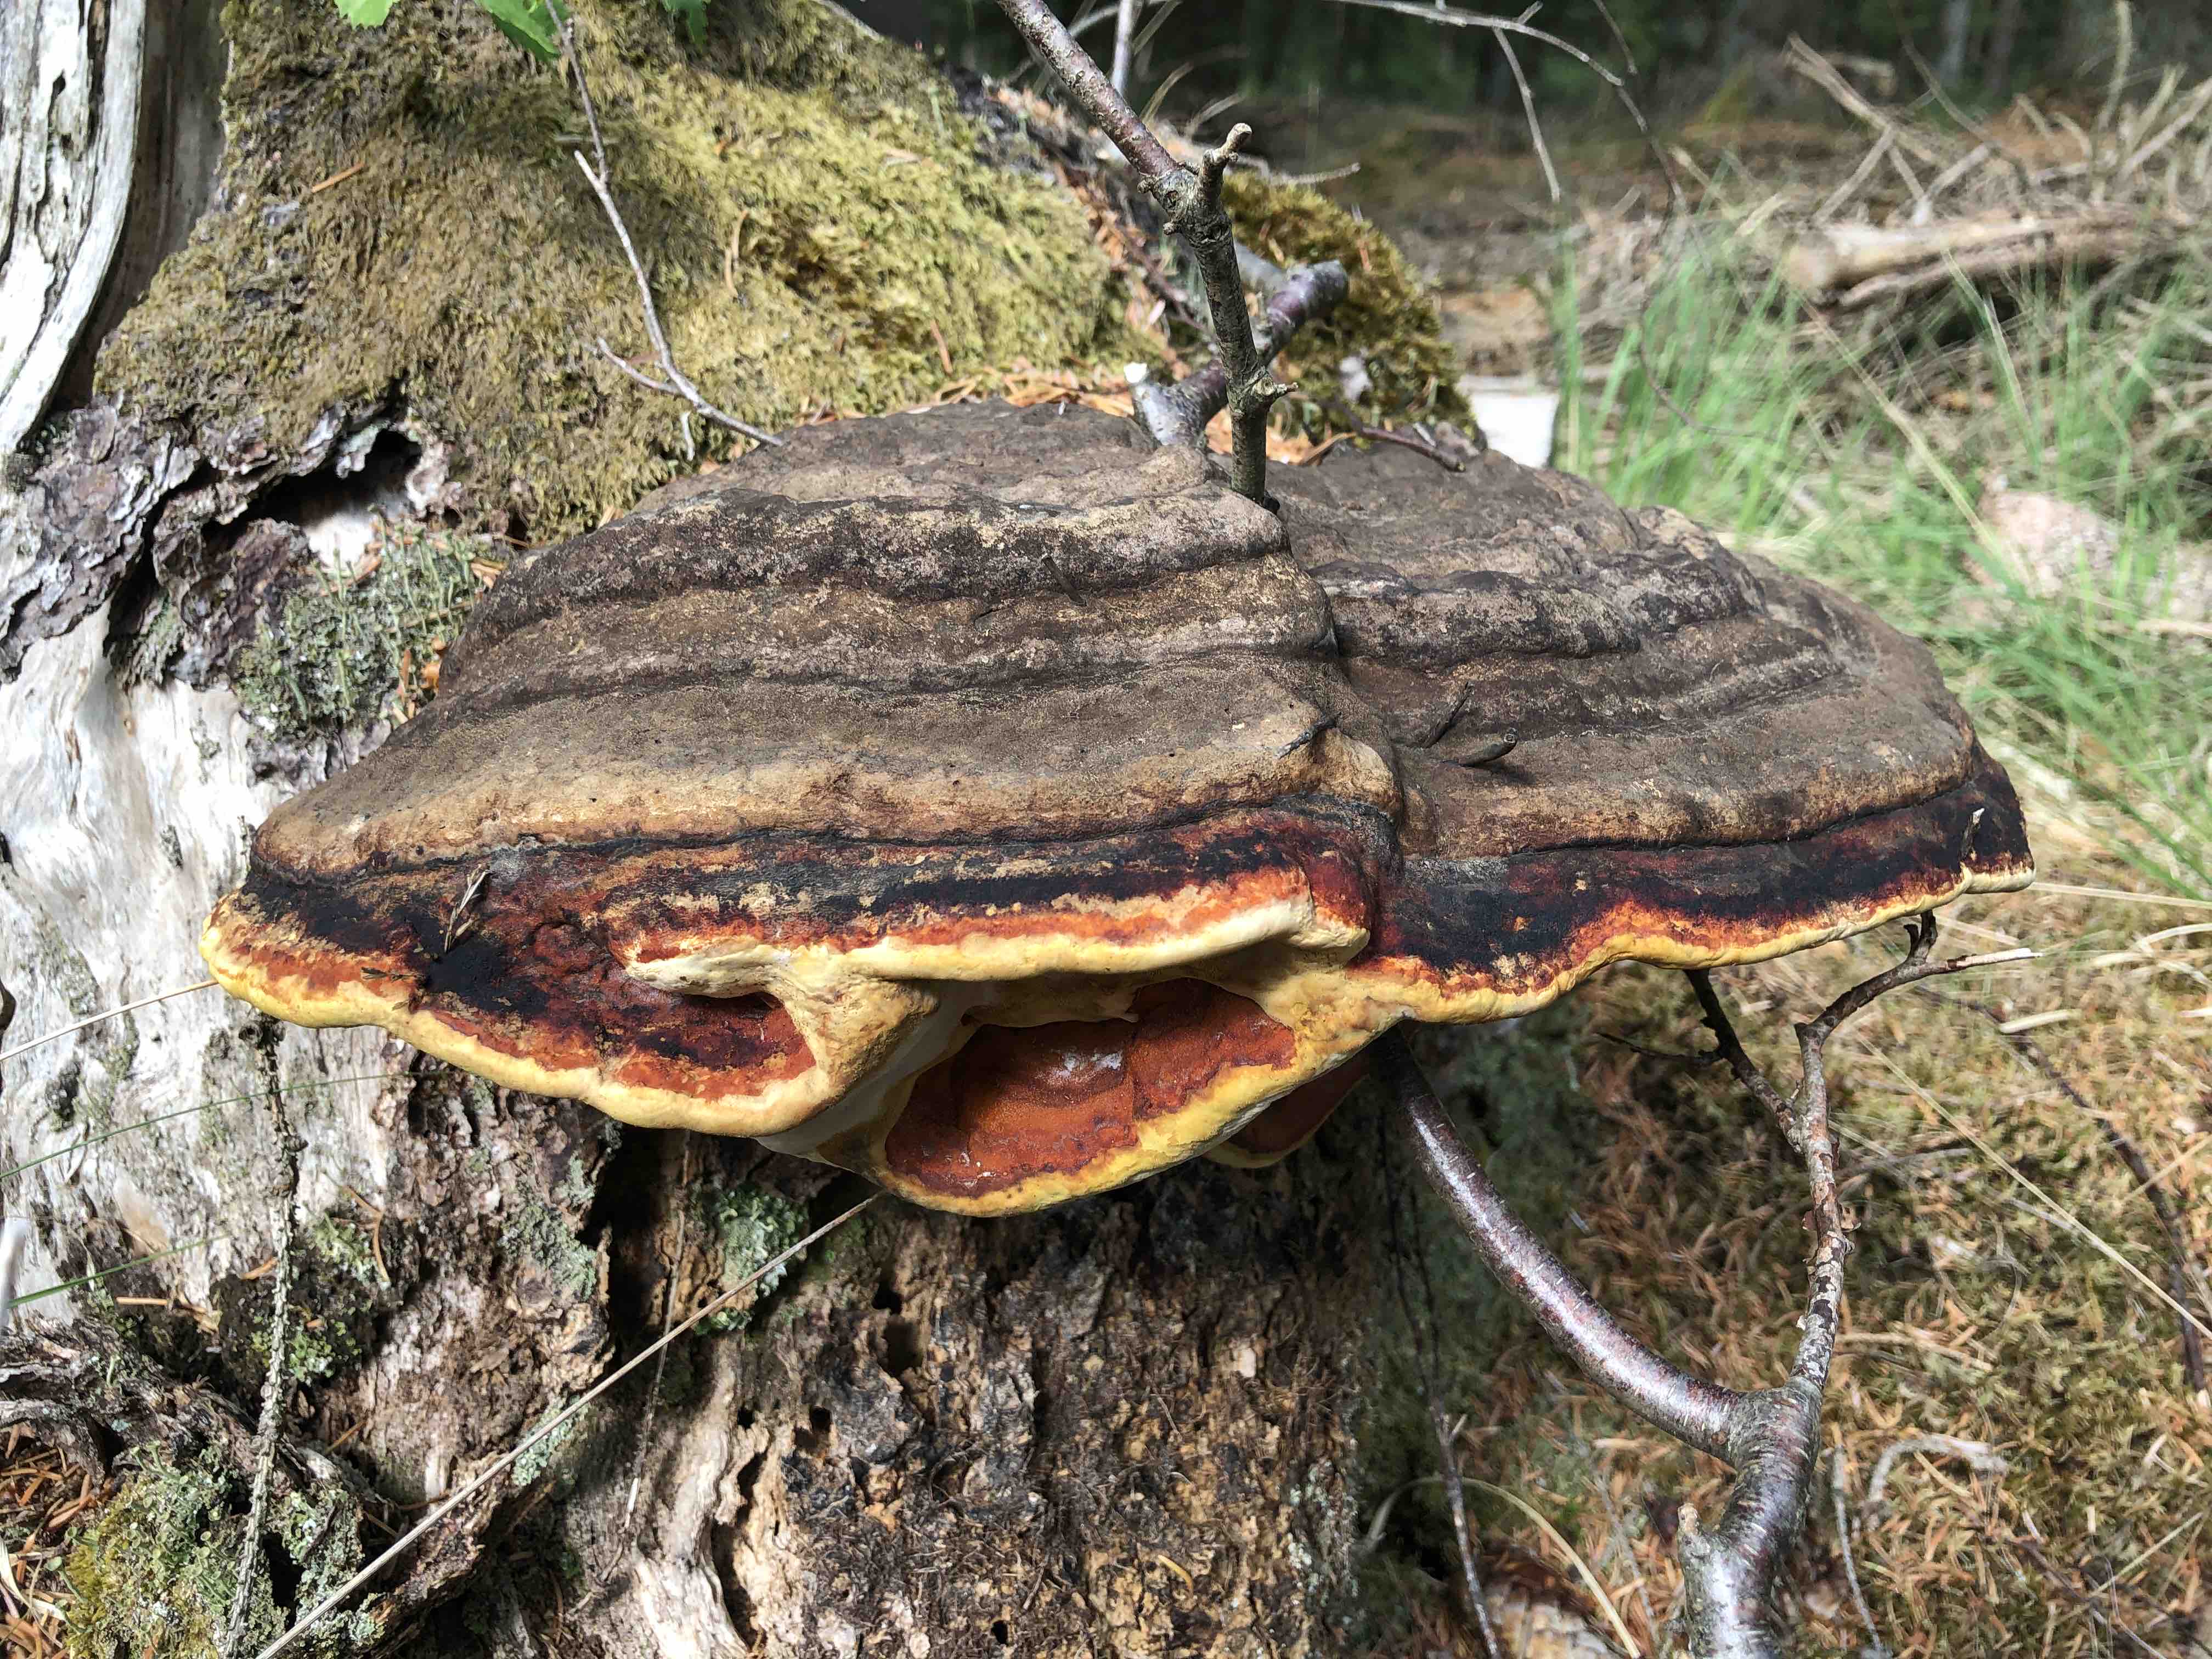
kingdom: Fungi
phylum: Basidiomycota
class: Agaricomycetes
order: Polyporales
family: Fomitopsidaceae
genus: Fomitopsis
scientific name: Fomitopsis pinicola
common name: randbæltet hovporesvamp
